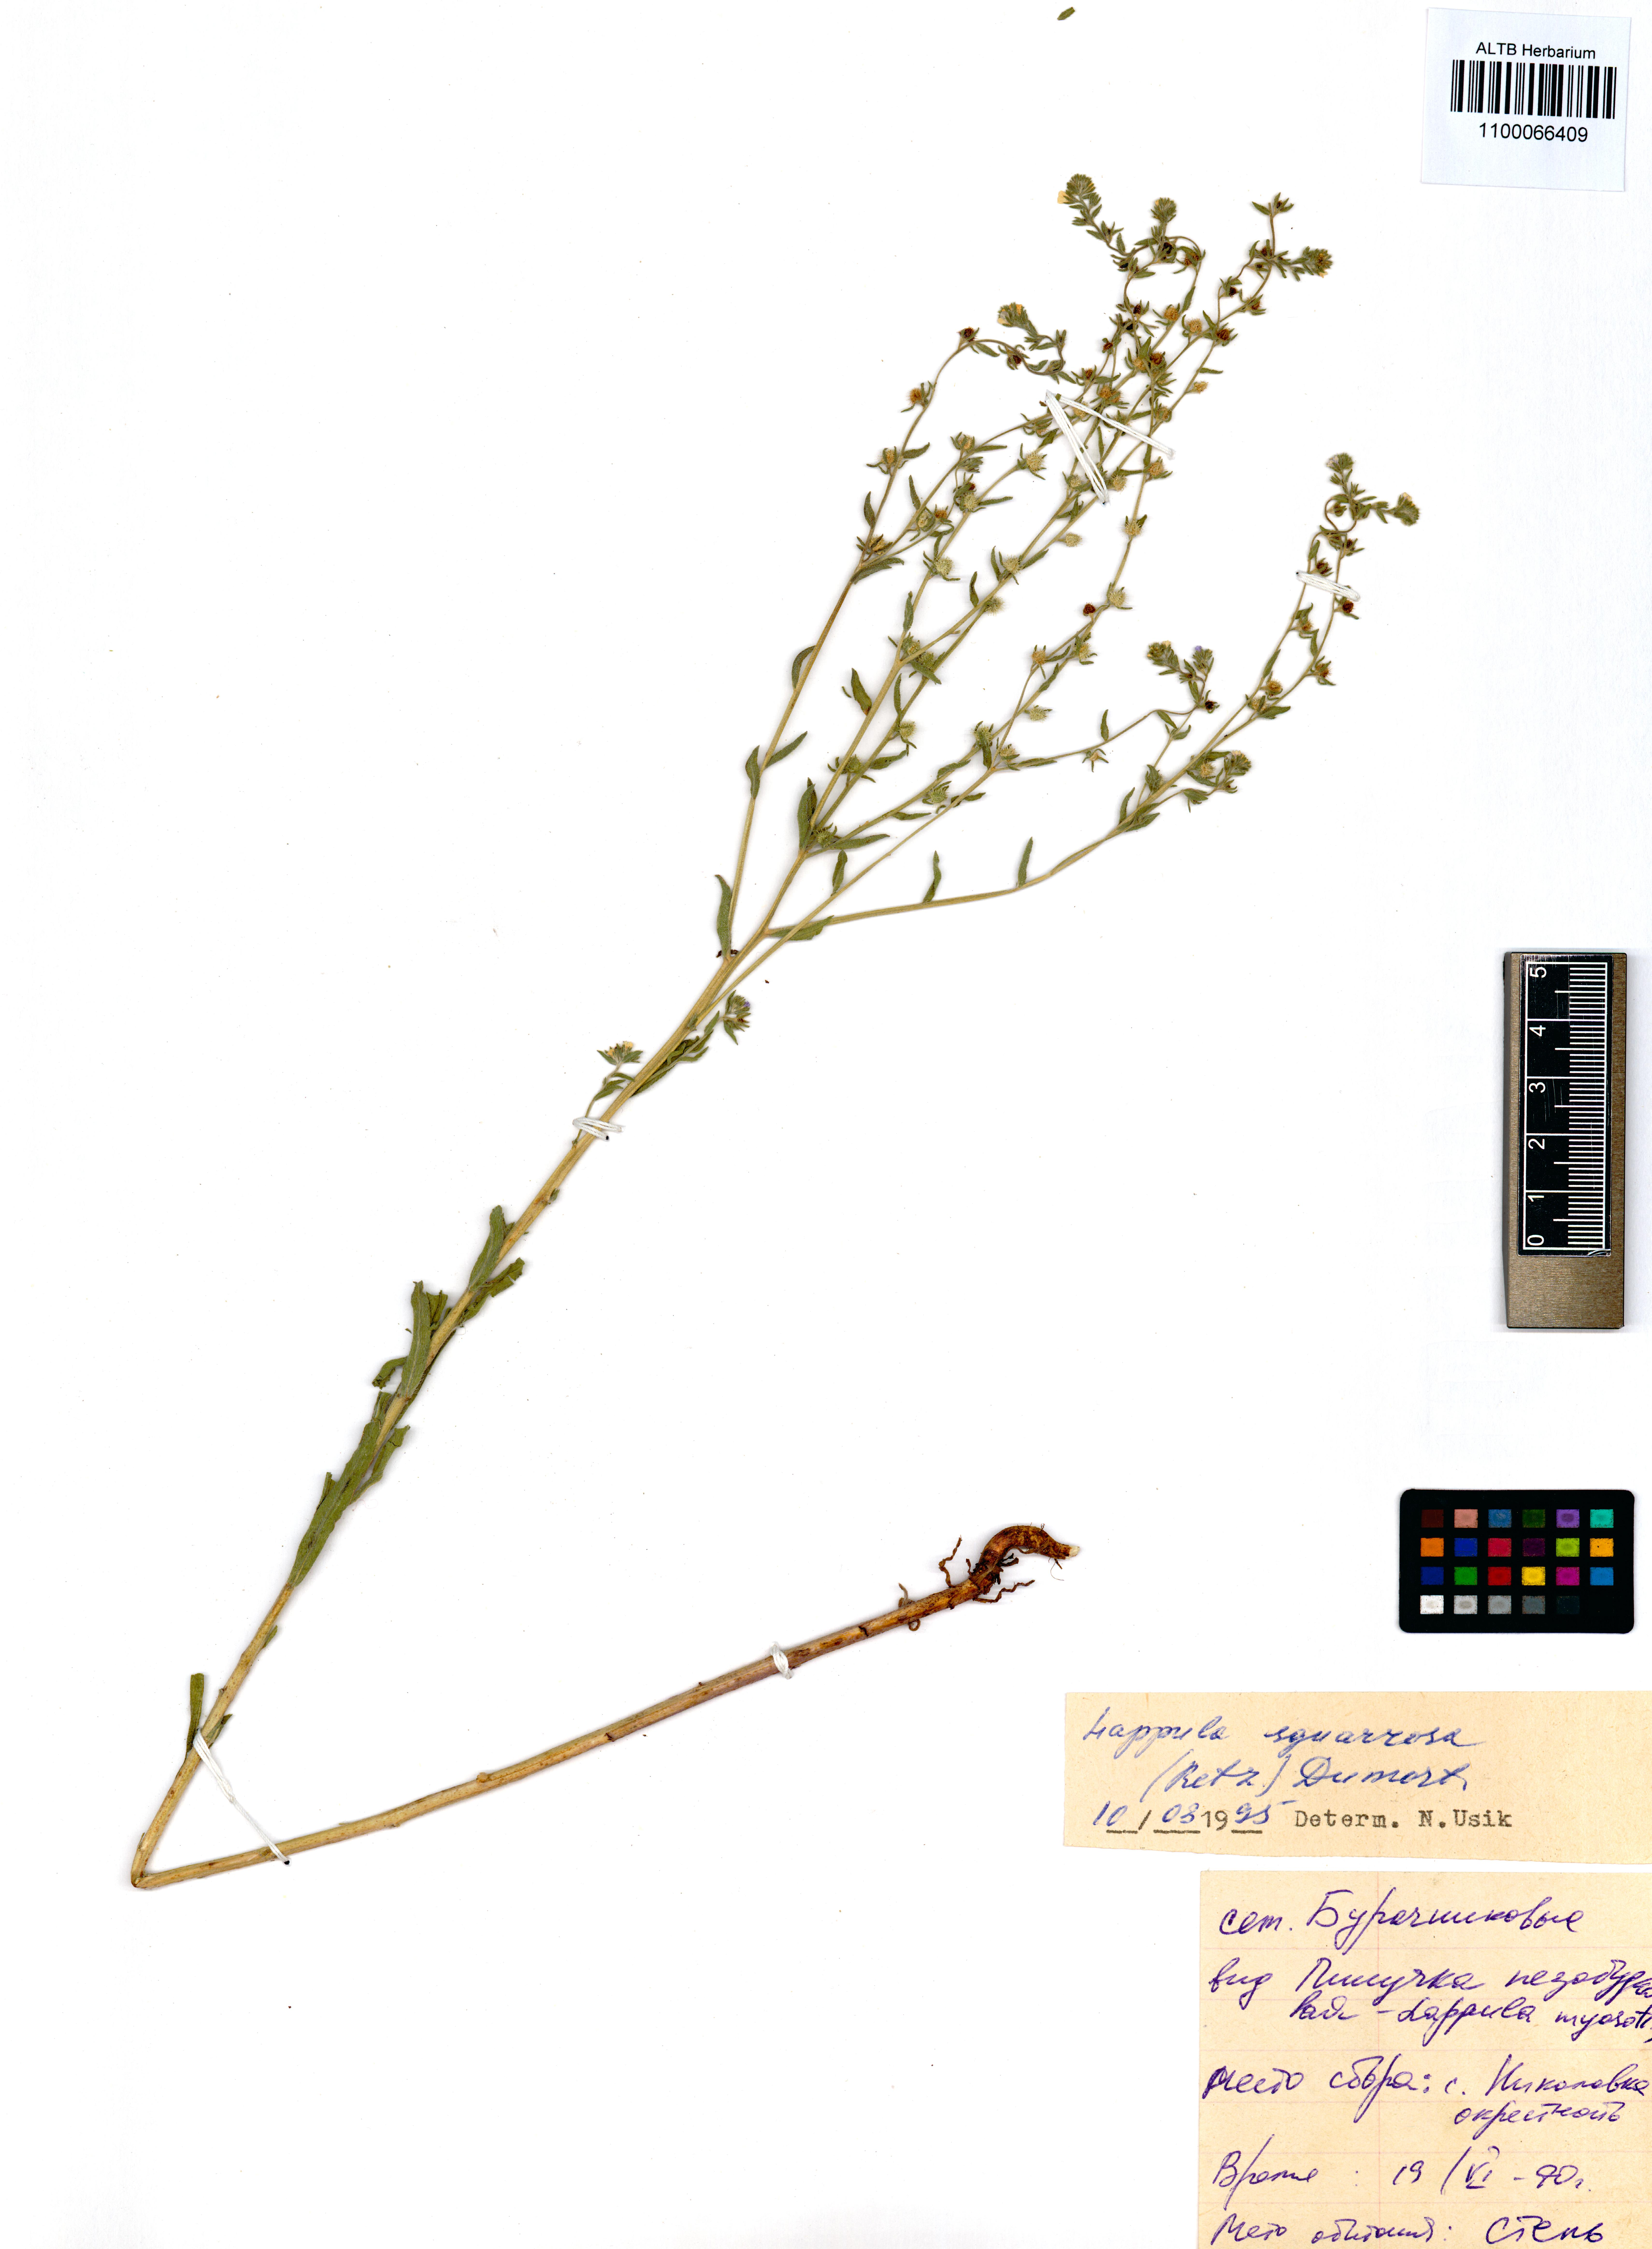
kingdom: Plantae
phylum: Tracheophyta
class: Magnoliopsida
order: Boraginales
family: Boraginaceae
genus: Lappula
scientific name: Lappula squarrosa
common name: European stickseed
